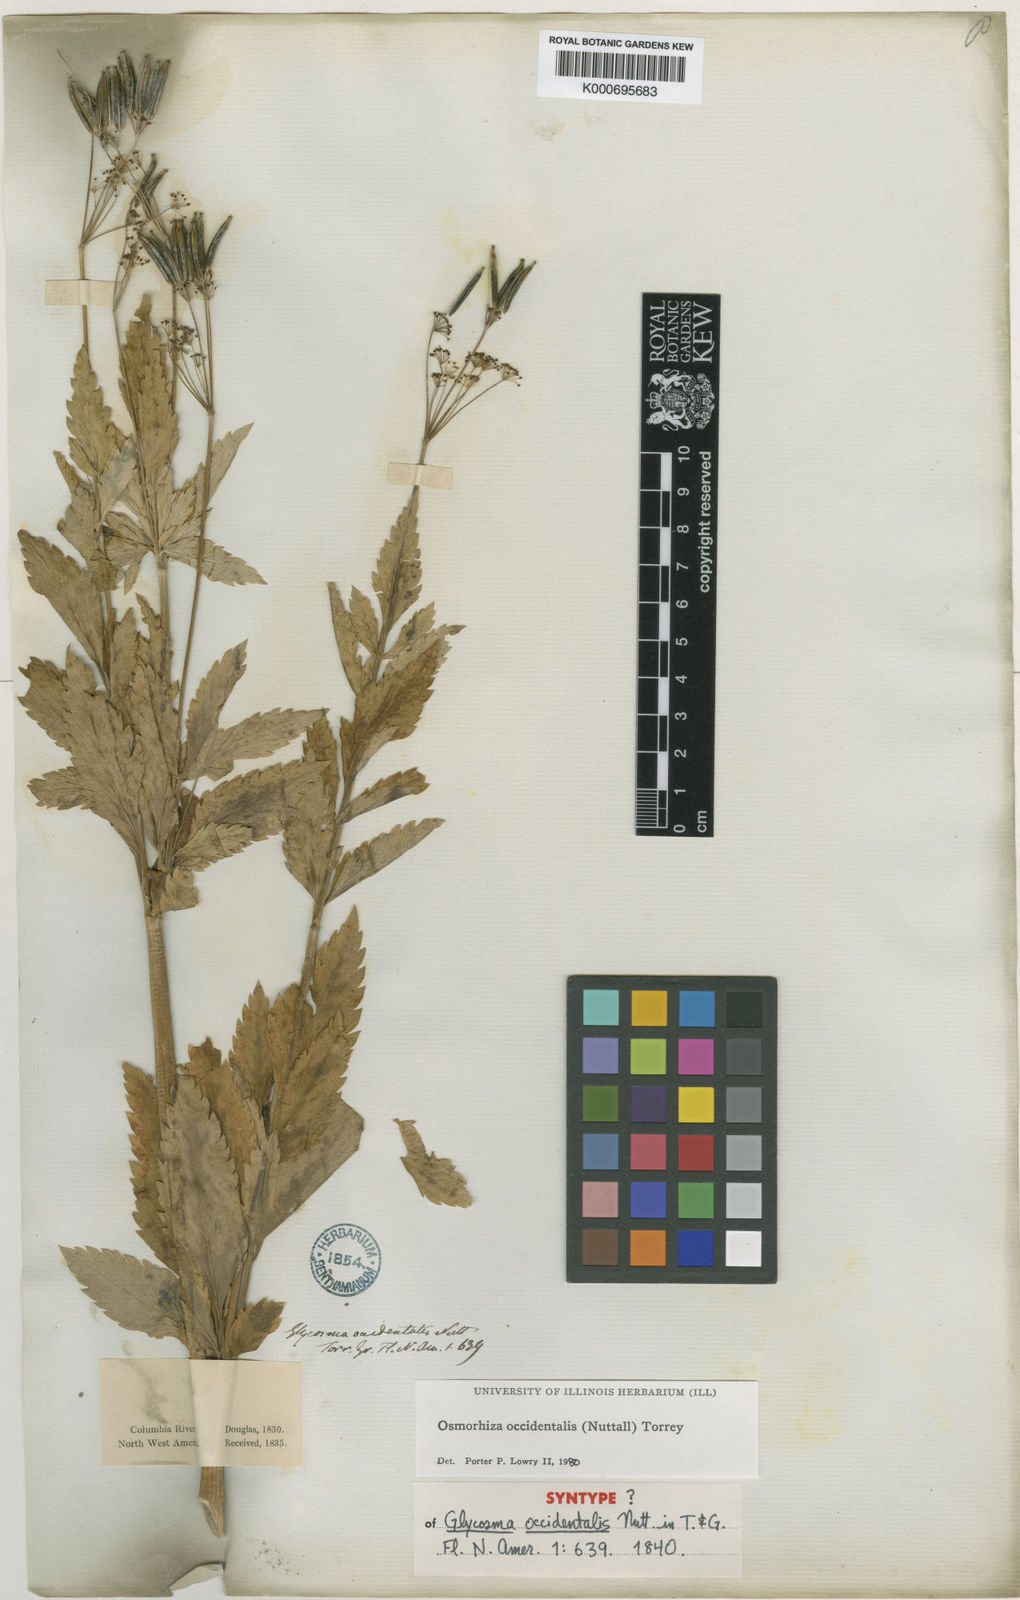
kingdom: Plantae
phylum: Tracheophyta
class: Magnoliopsida
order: Apiales
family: Apiaceae
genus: Osmorhiza
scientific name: Osmorhiza occidentalis
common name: Western sweet cicely
